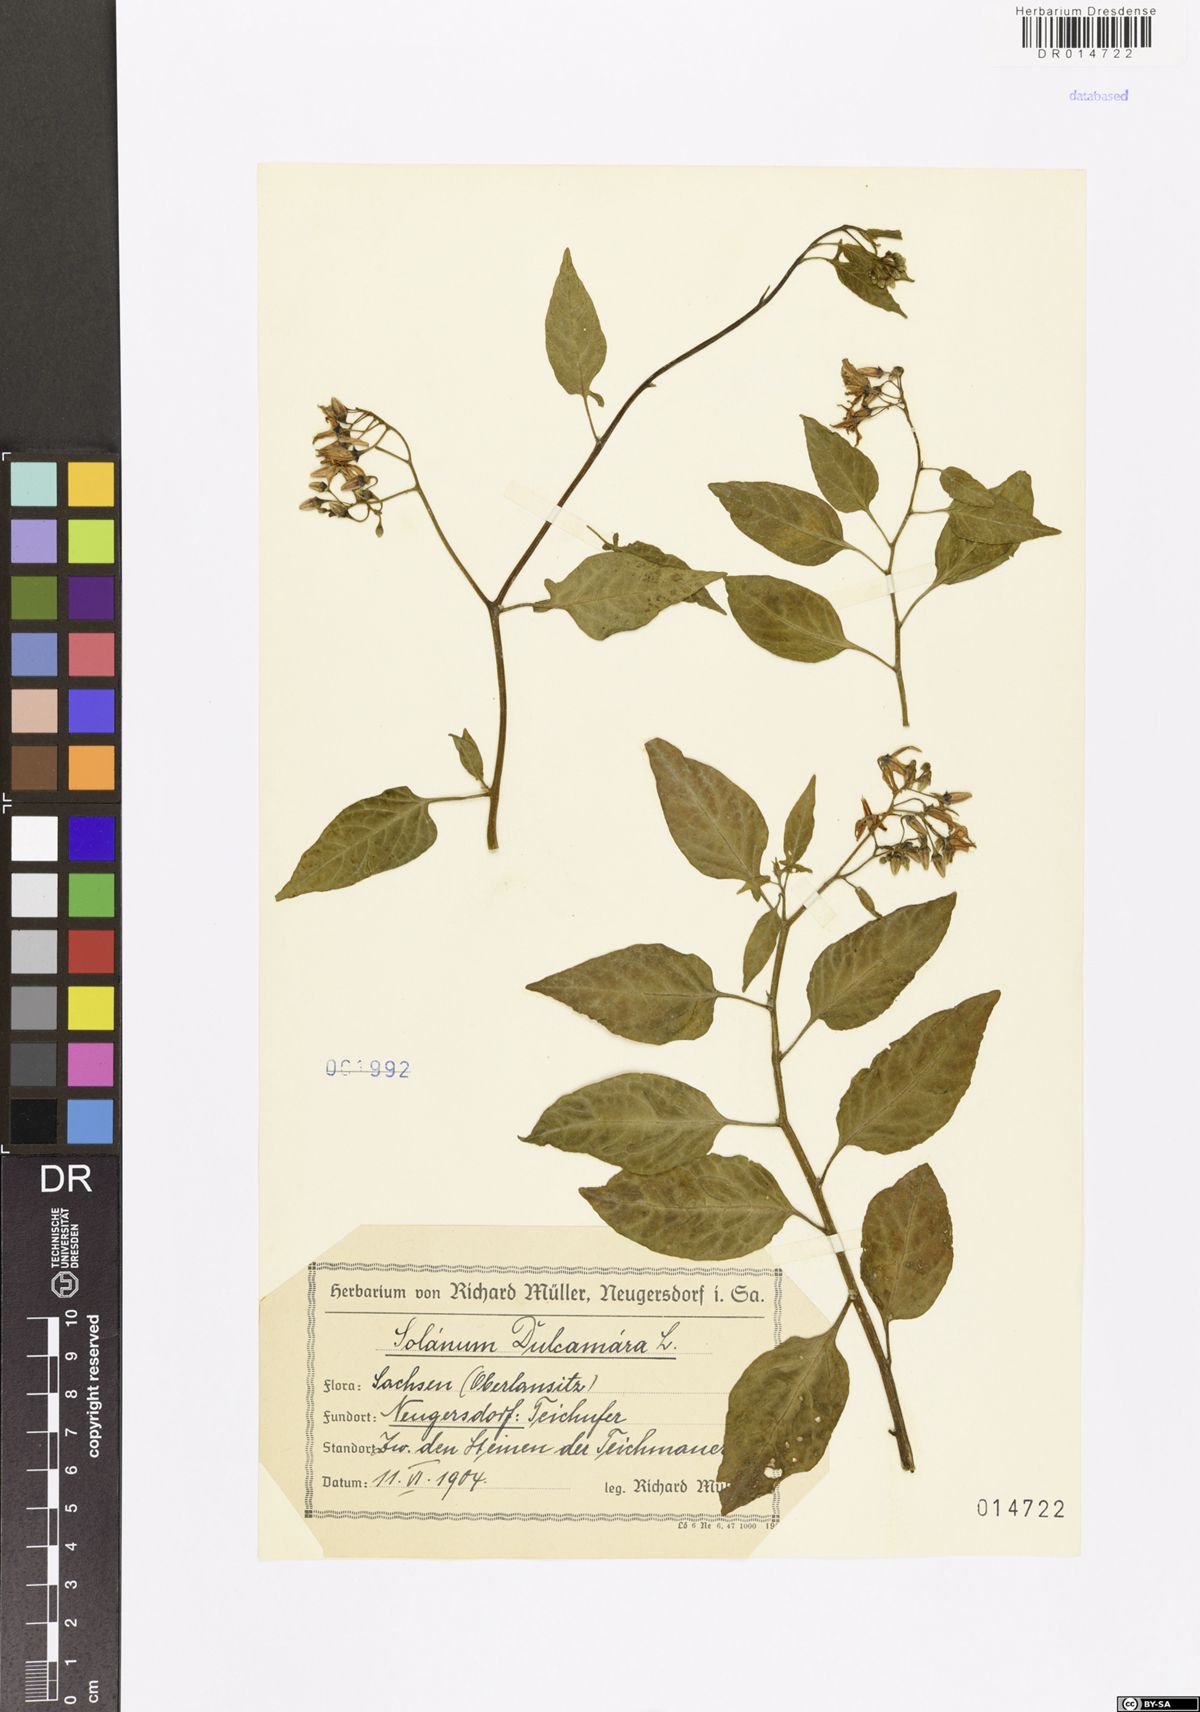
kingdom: Plantae
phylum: Tracheophyta
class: Magnoliopsida
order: Solanales
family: Solanaceae
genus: Solanum
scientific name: Solanum dulcamara
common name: Climbing nightshade
